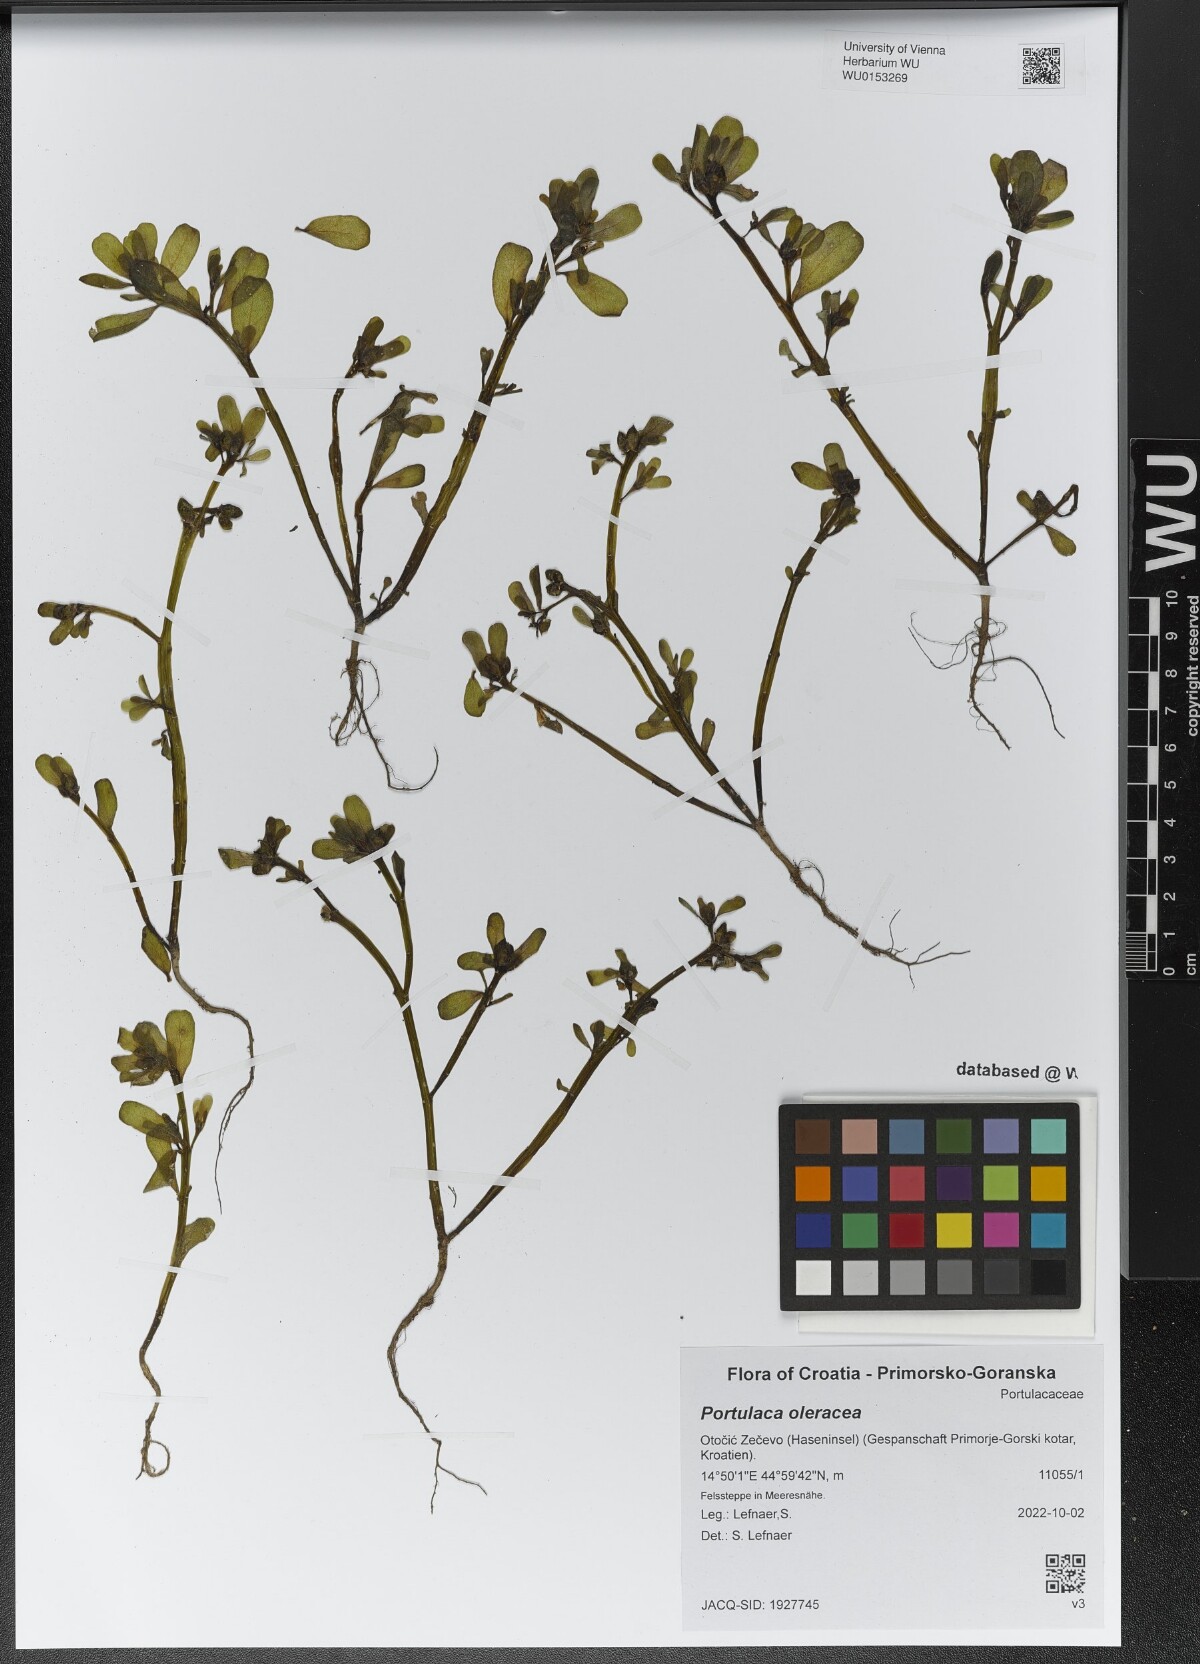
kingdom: Plantae
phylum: Tracheophyta
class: Magnoliopsida
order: Caryophyllales
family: Portulacaceae
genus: Portulaca
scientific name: Portulaca oleracea
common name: Common purslane
